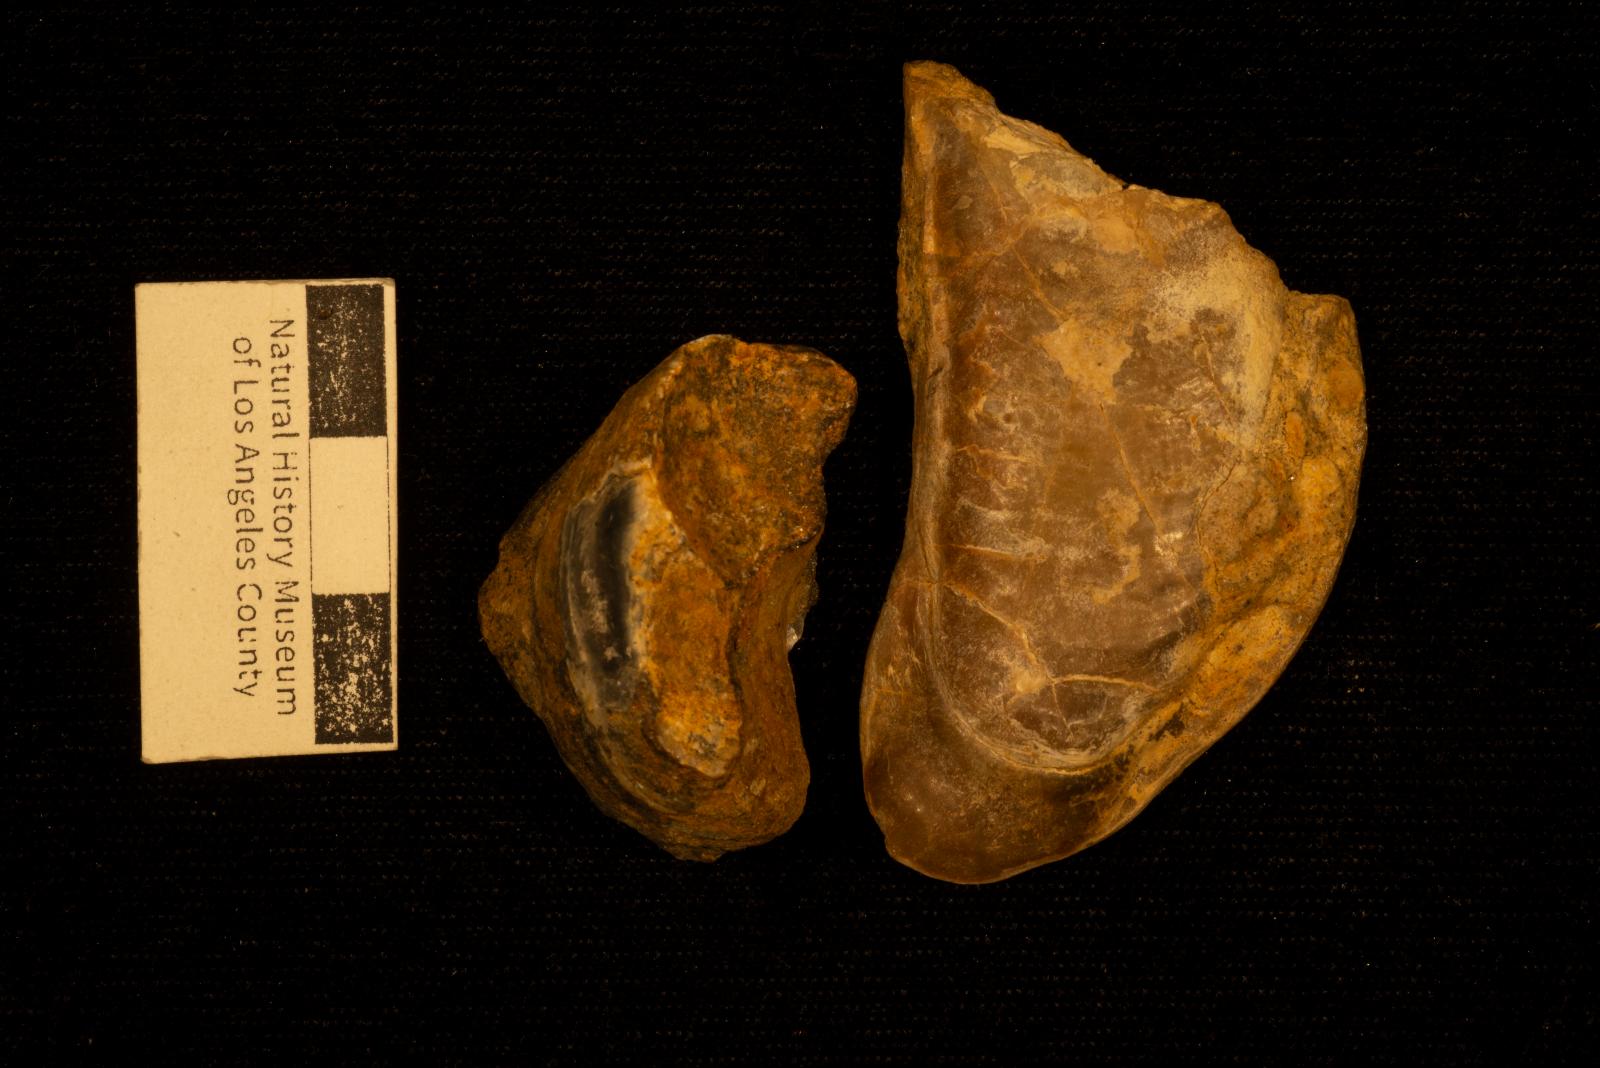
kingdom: Animalia
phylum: Mollusca
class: Bivalvia
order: Ostreida
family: Ostreidae
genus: Curvostrea
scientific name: Curvostrea
